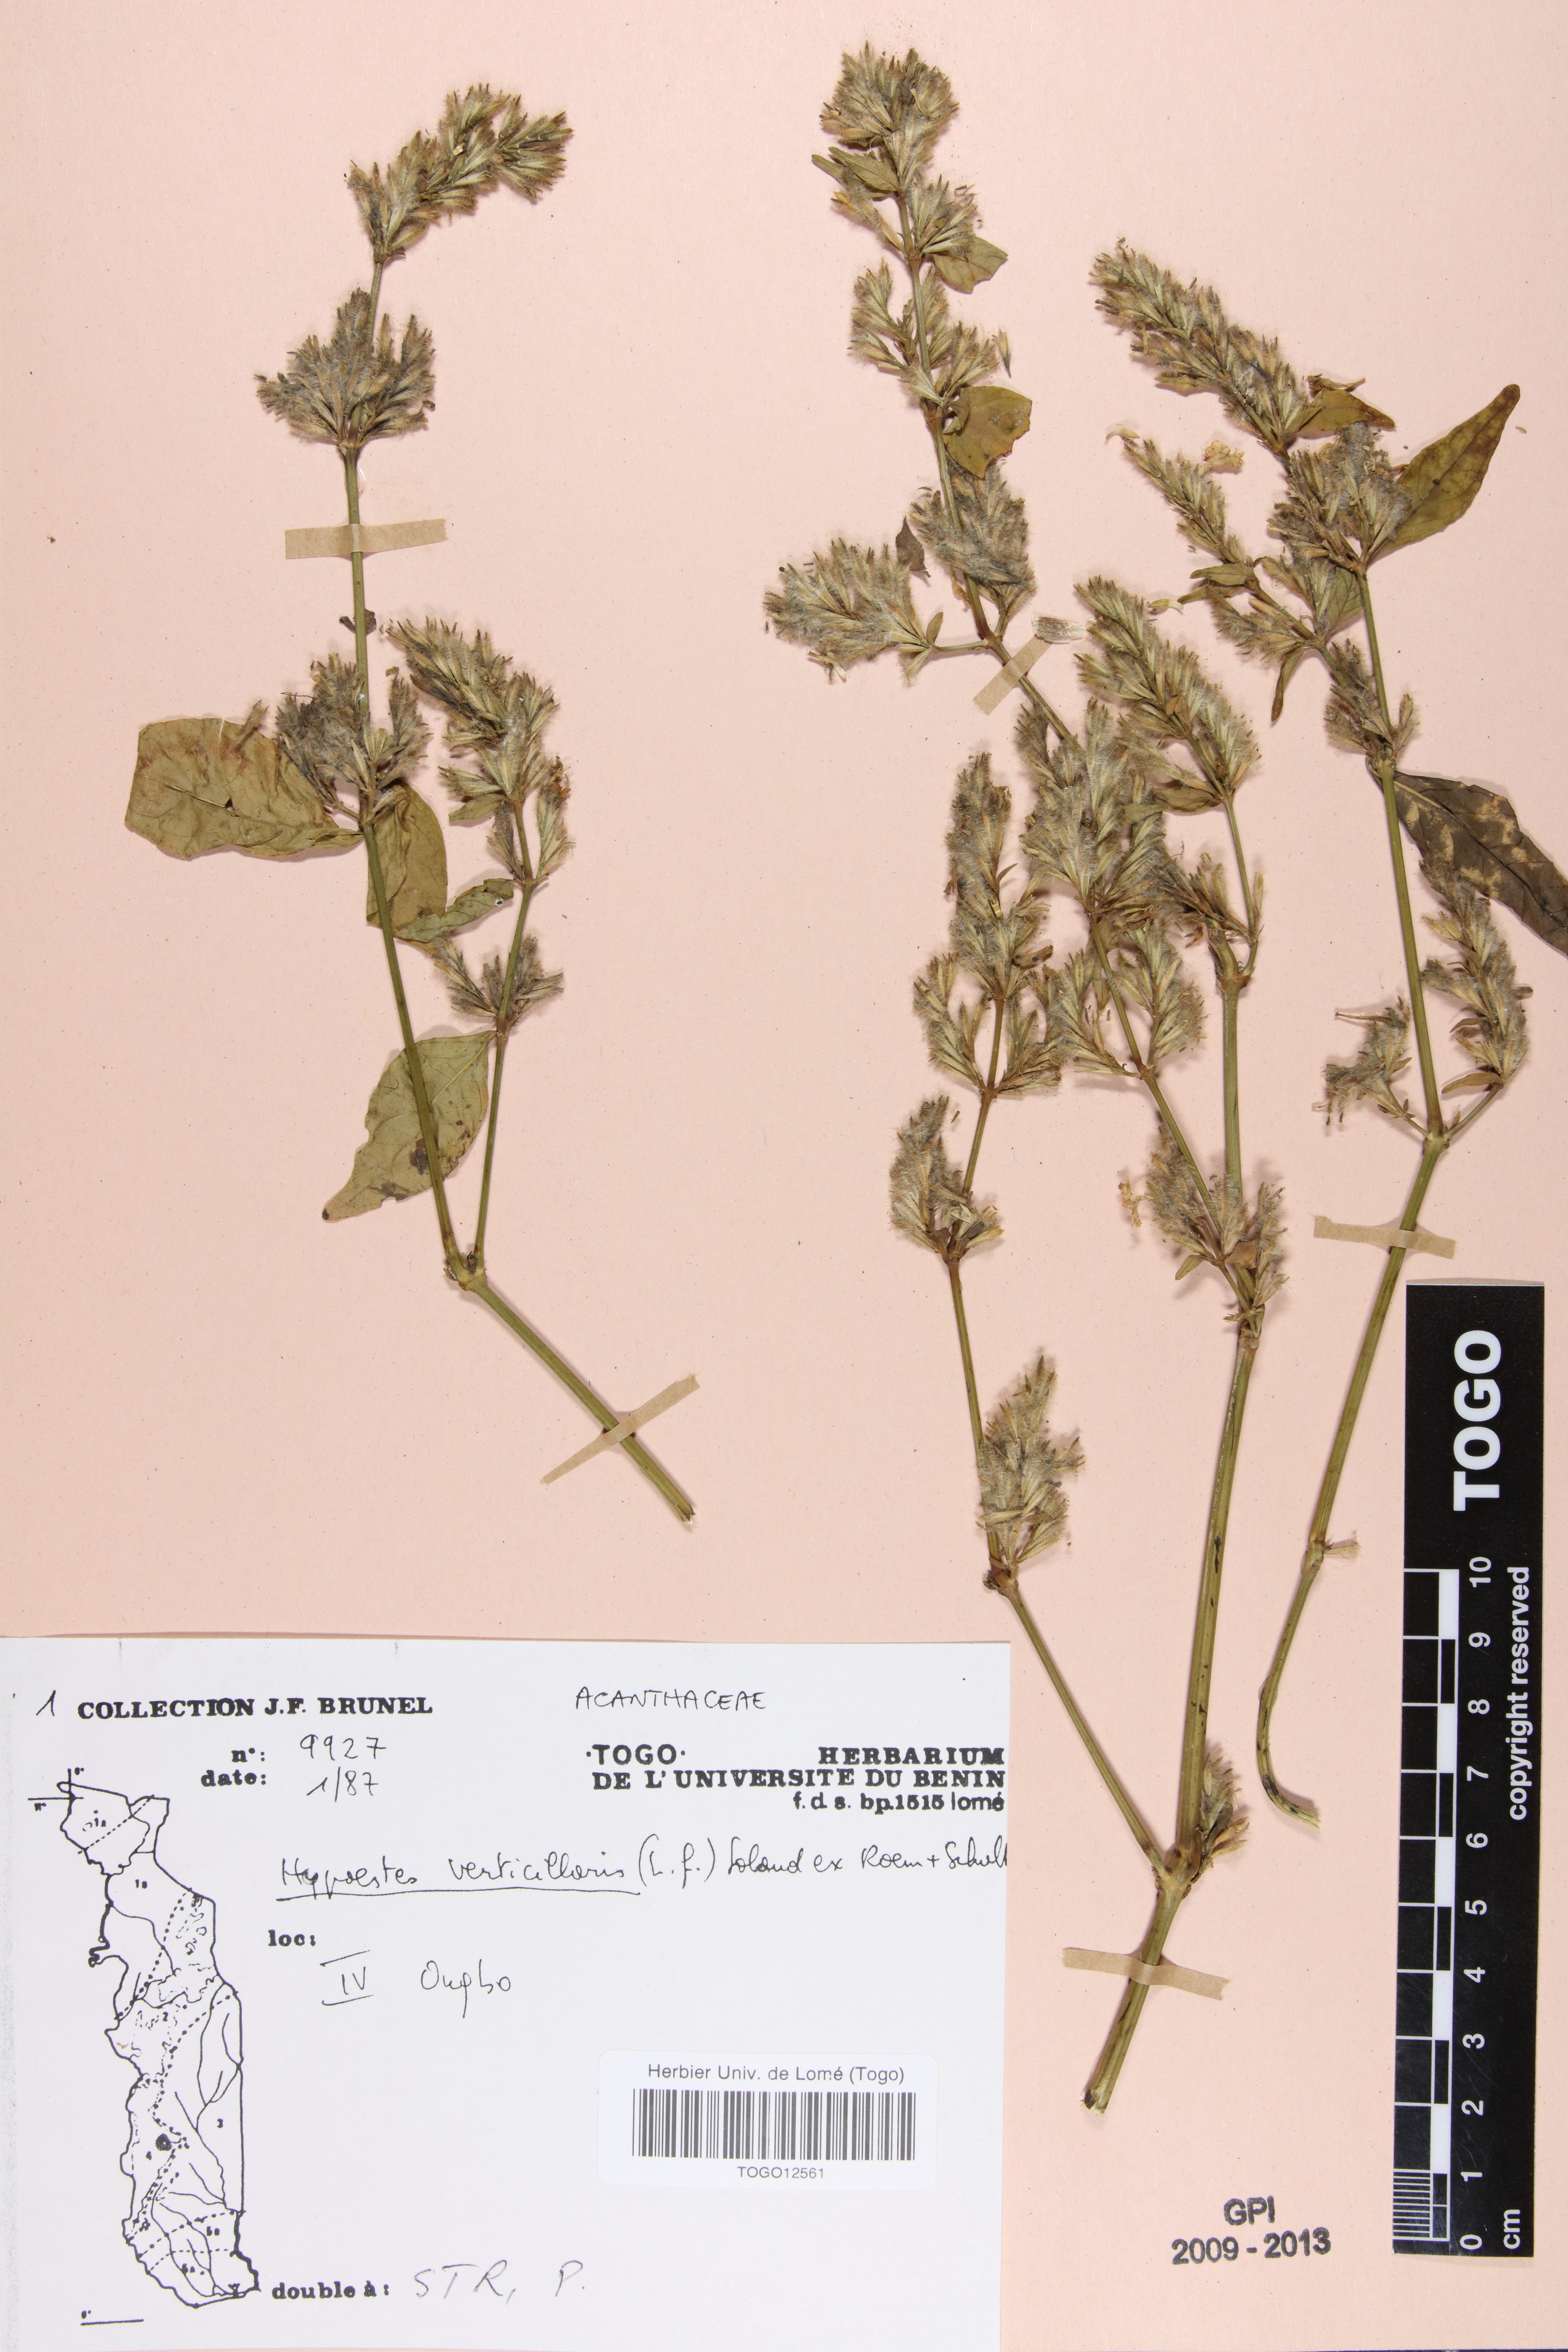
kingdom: Plantae
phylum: Tracheophyta
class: Magnoliopsida
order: Lamiales
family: Acanthaceae
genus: Hypoestes
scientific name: Hypoestes aristata
